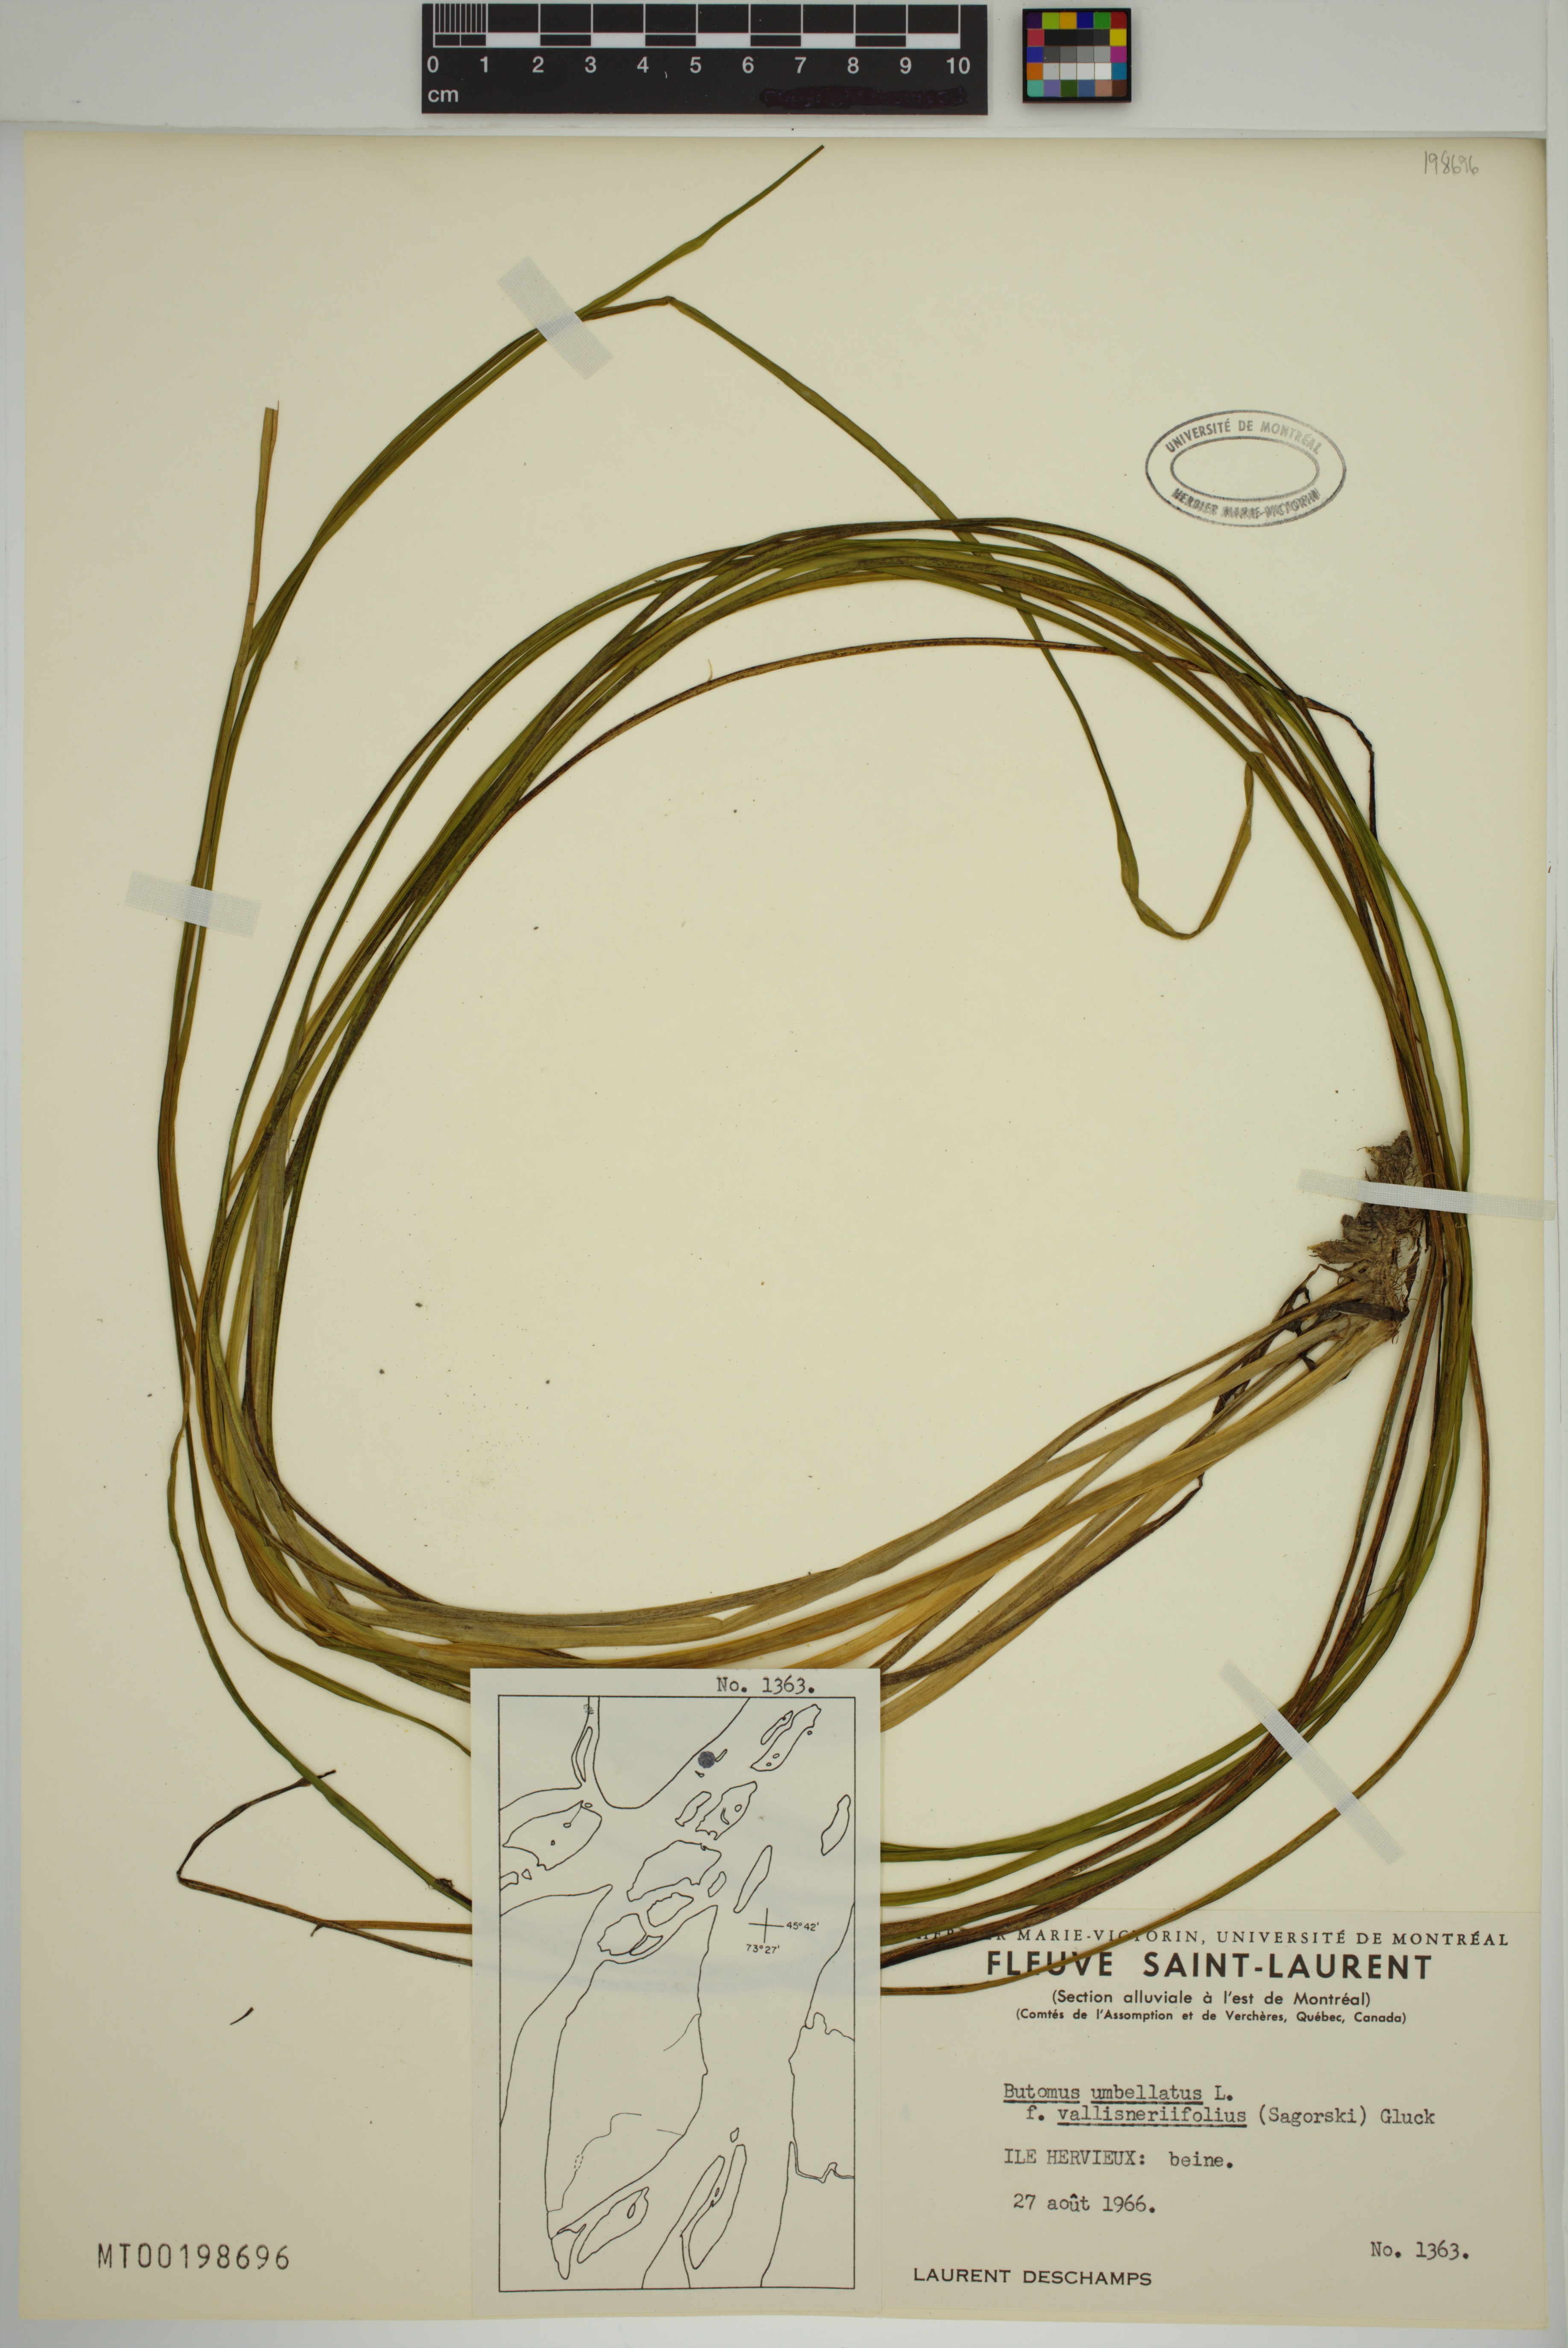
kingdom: Plantae
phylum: Tracheophyta
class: Liliopsida
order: Alismatales
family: Butomaceae
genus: Butomus
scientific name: Butomus umbellatus
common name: Flowering-rush
